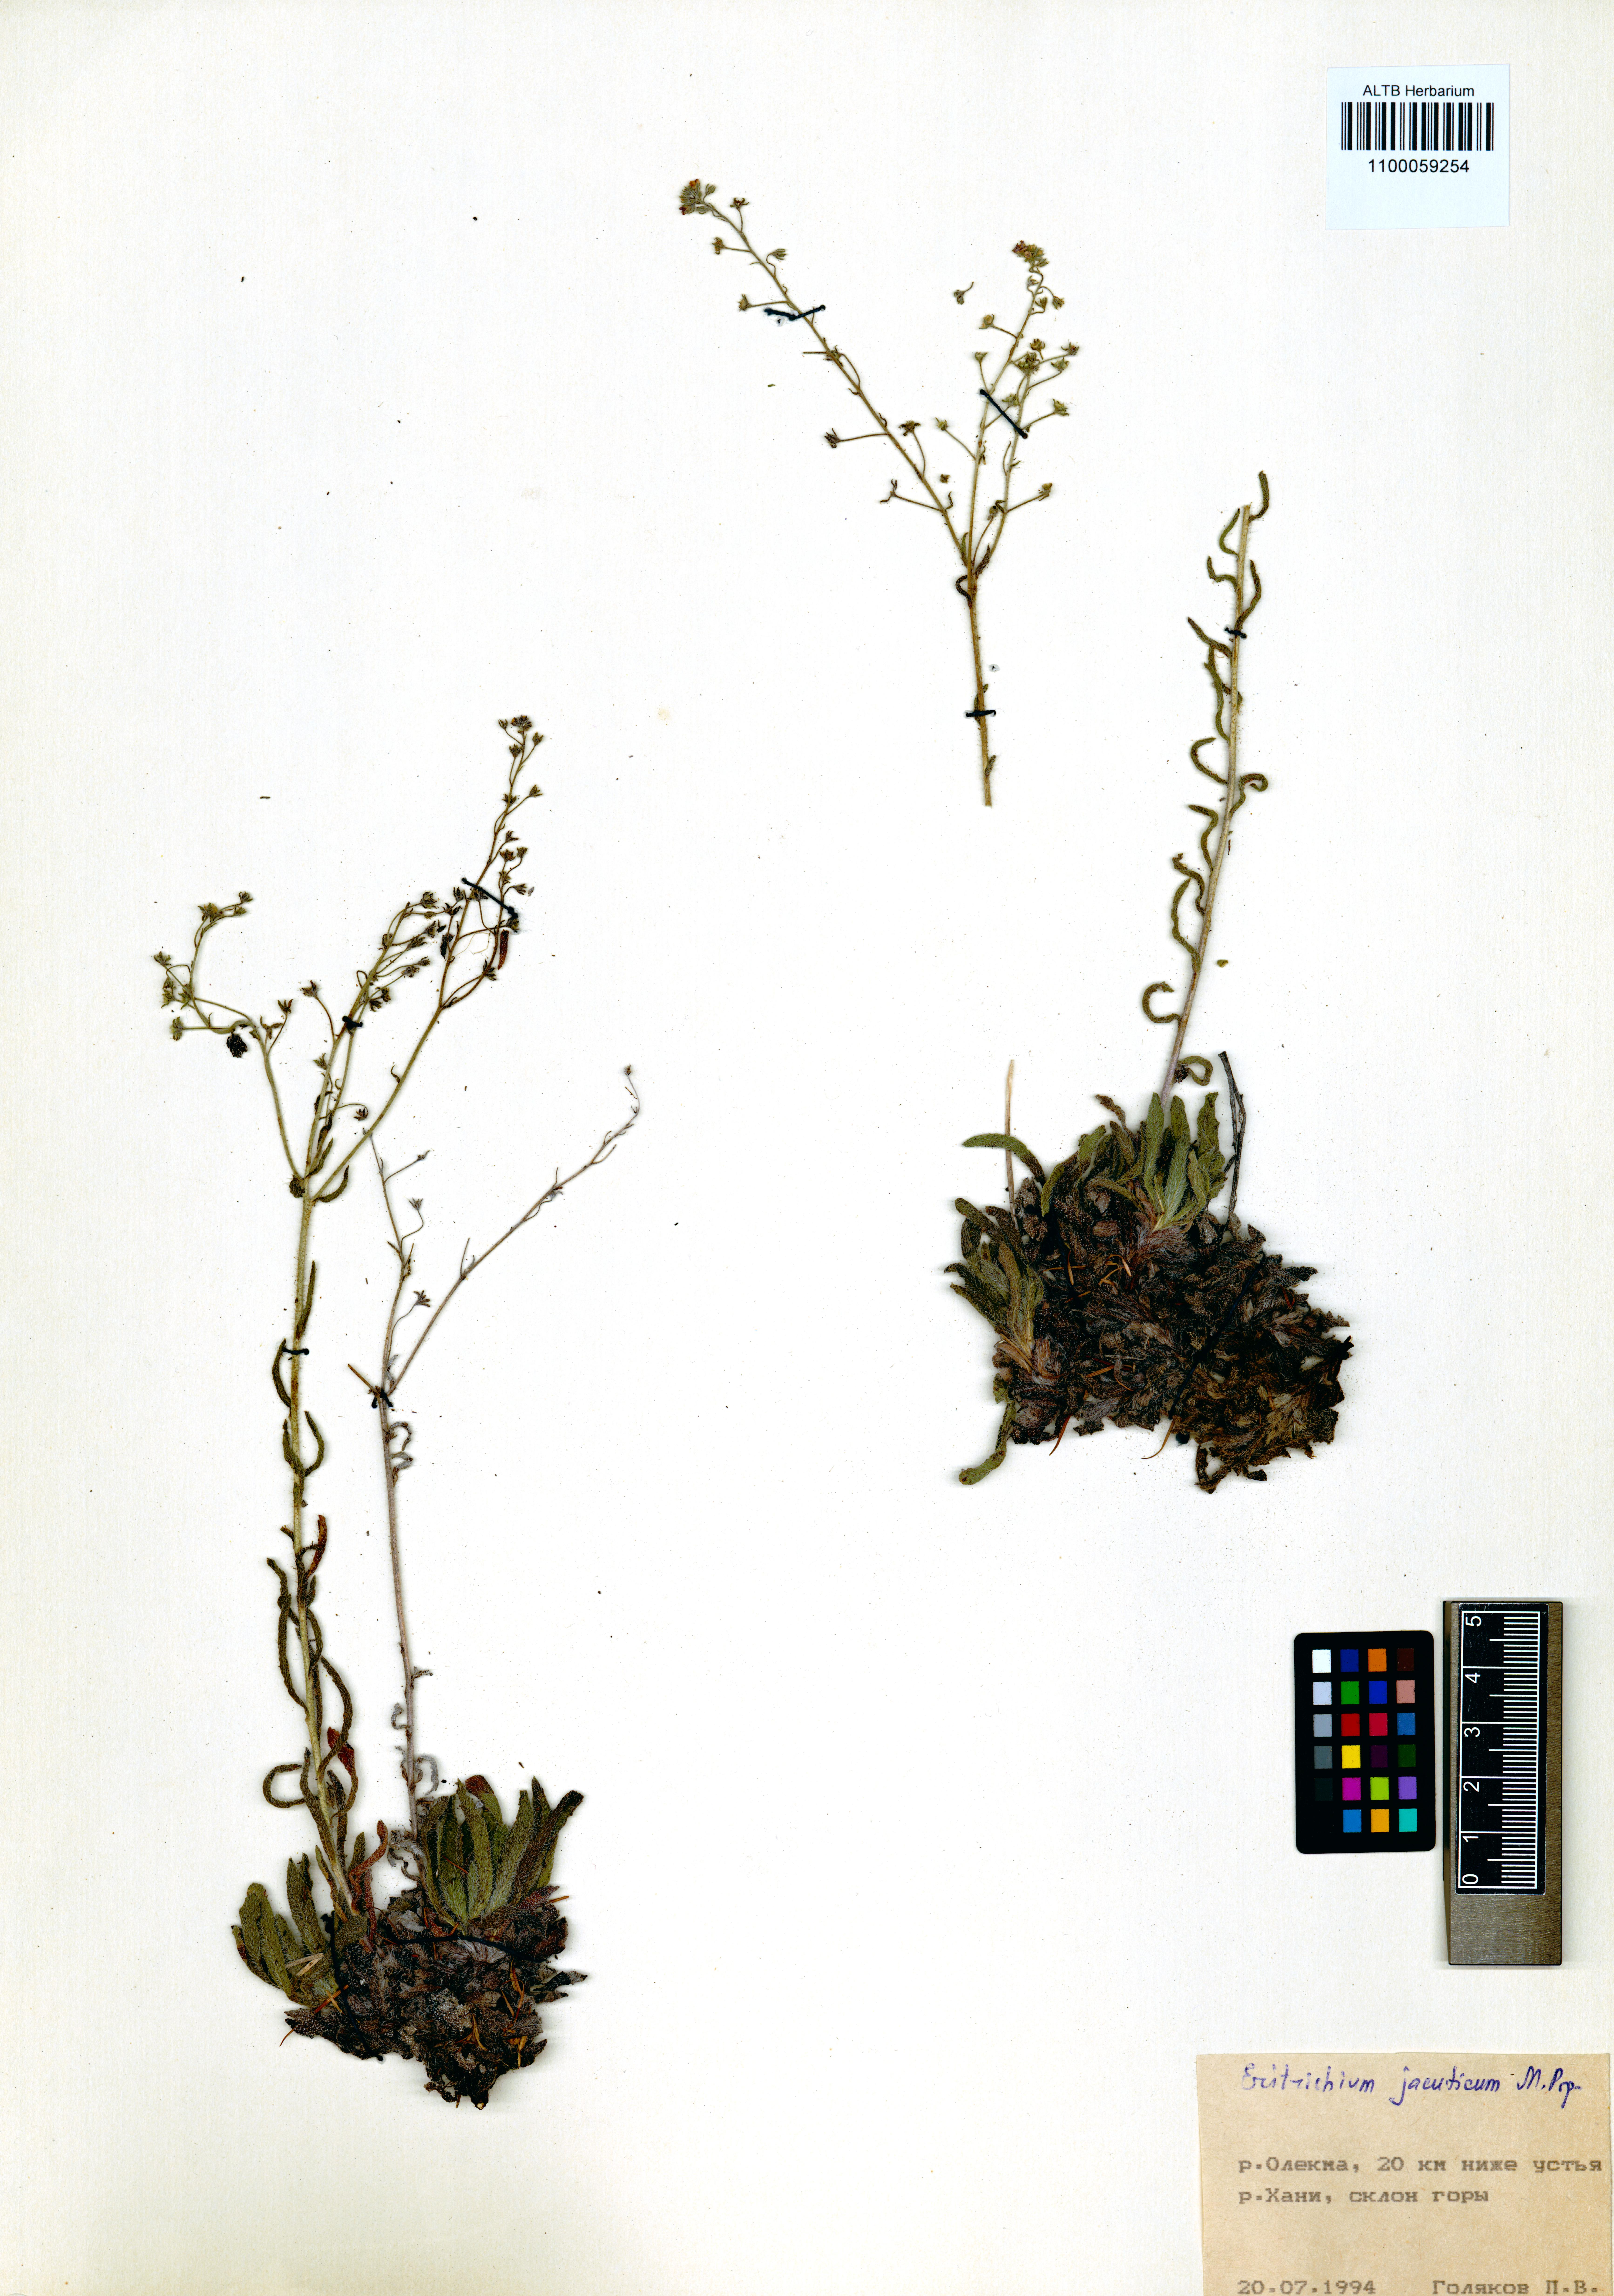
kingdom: Plantae
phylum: Tracheophyta
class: Magnoliopsida
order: Boraginales
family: Boraginaceae
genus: Eritrichium
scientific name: Eritrichium jacuticum
